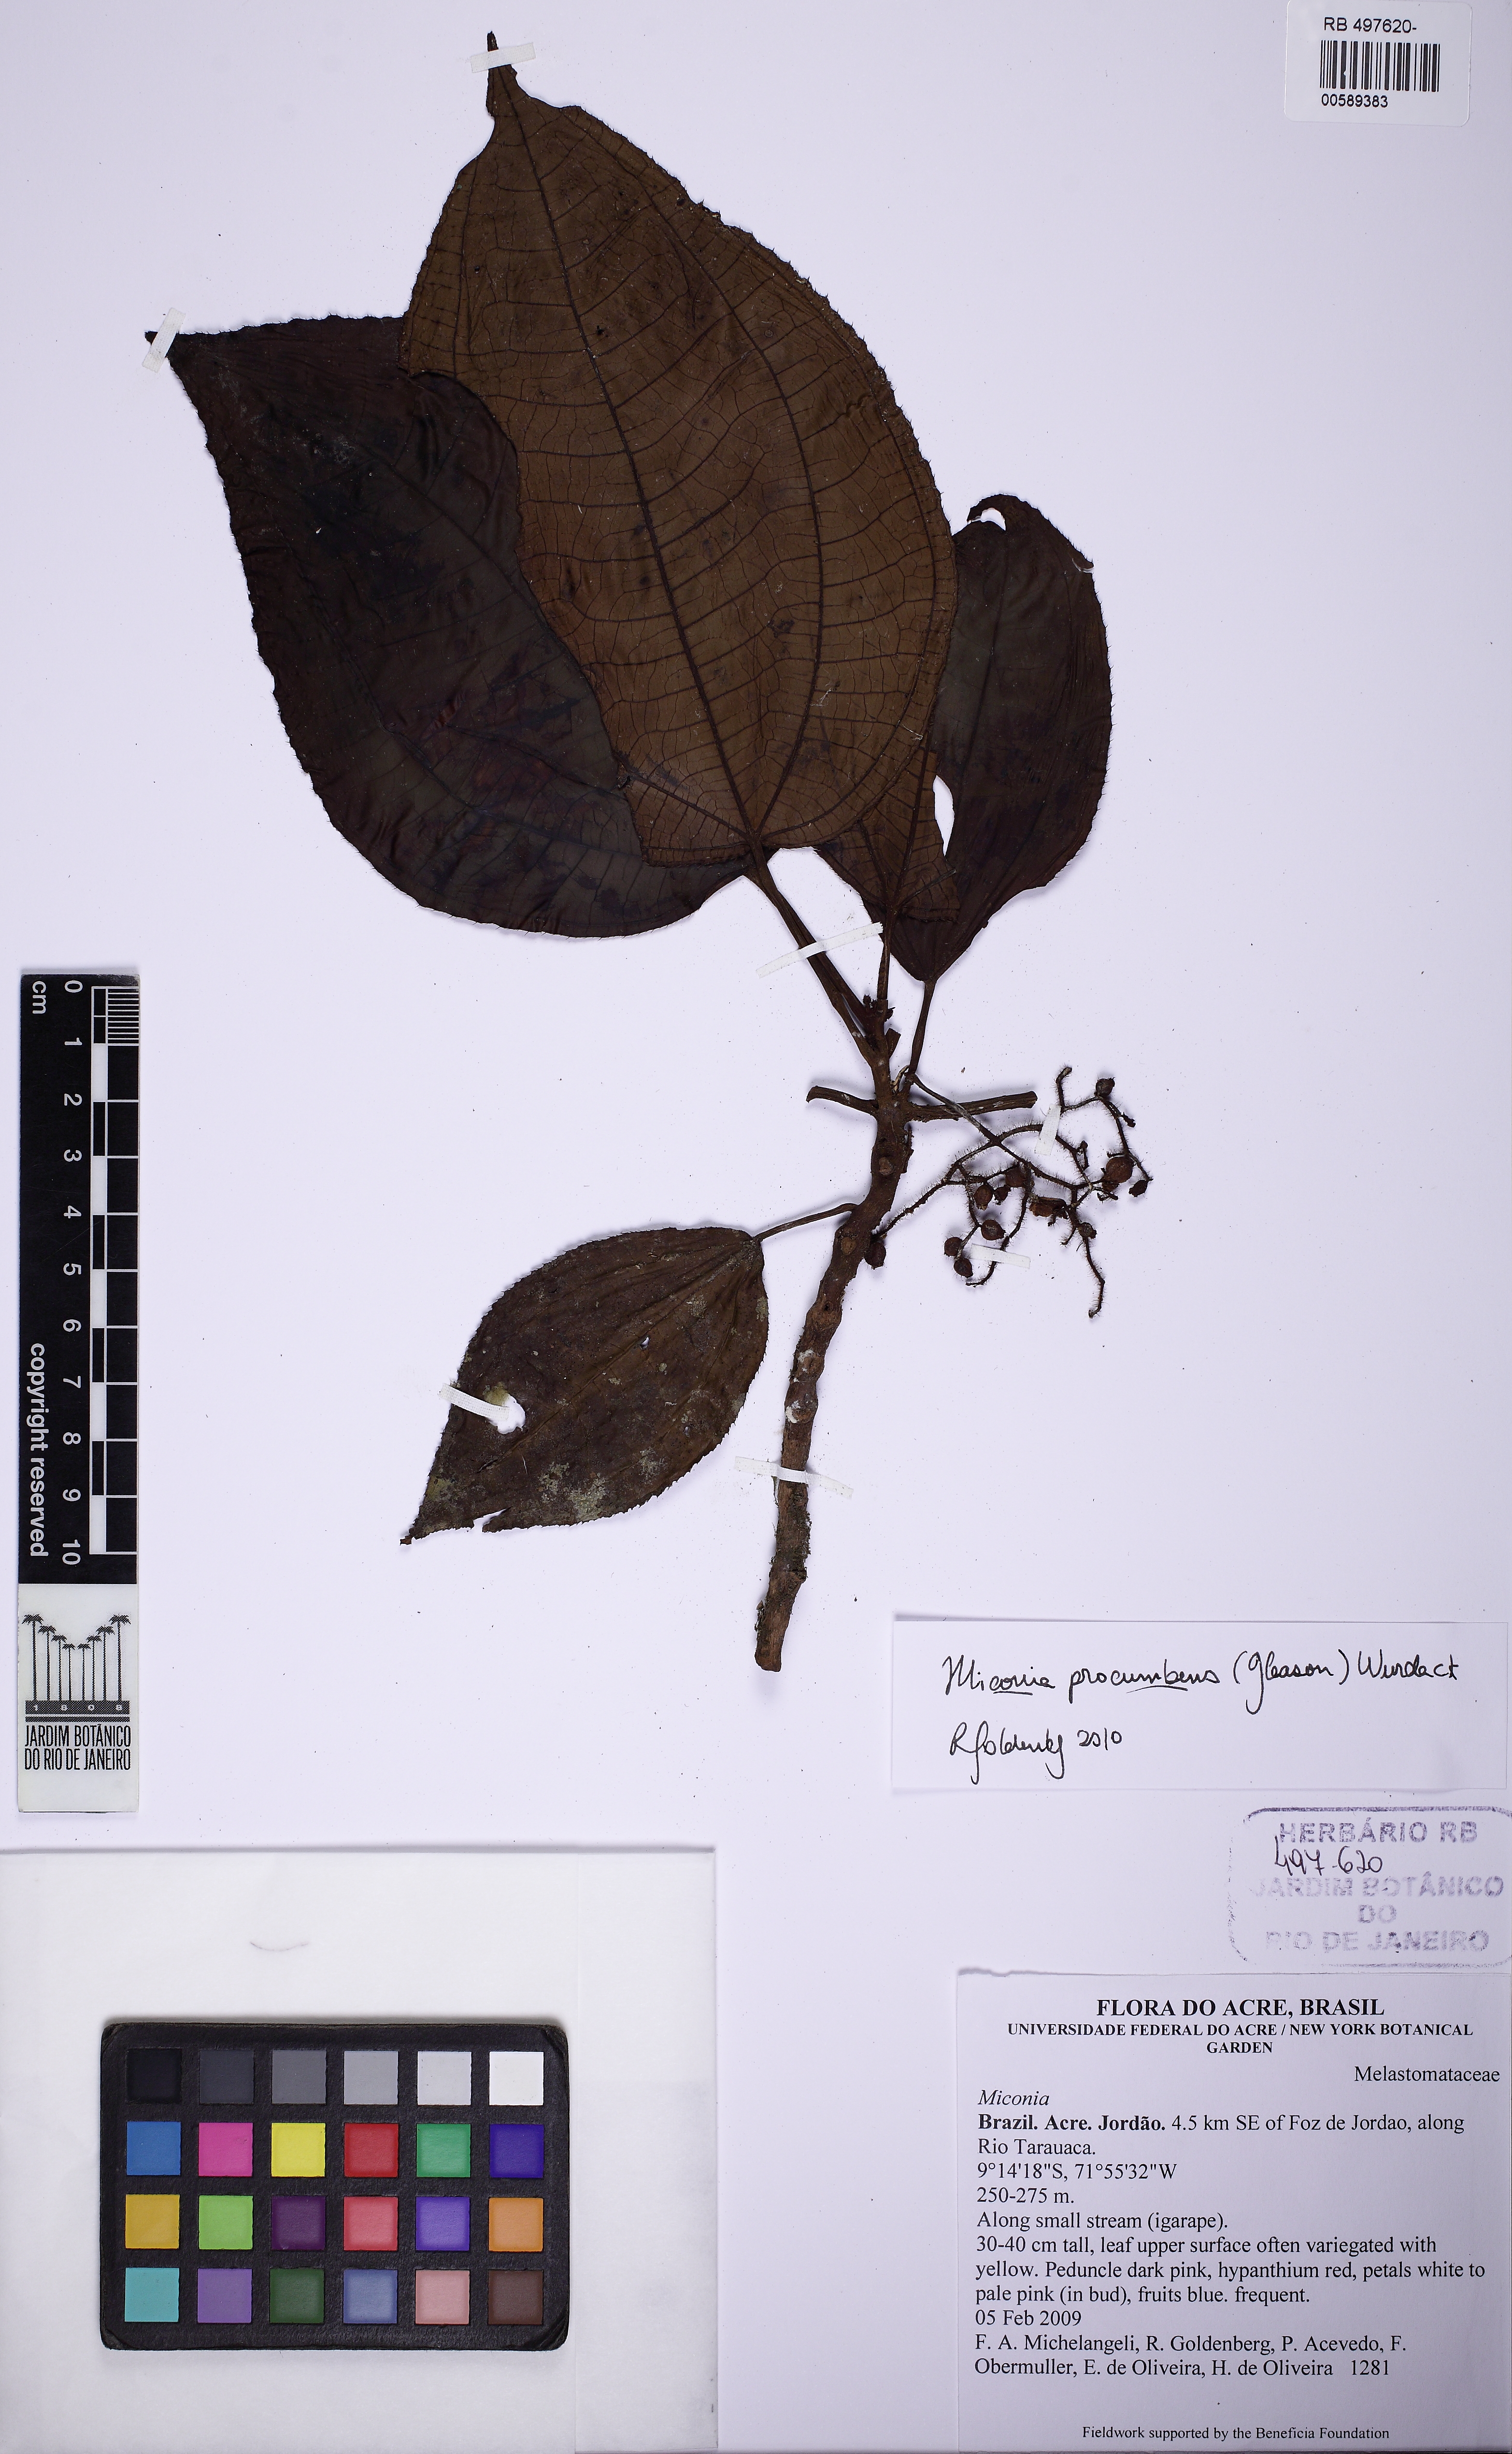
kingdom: Plantae
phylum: Tracheophyta
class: Magnoliopsida
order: Myrtales
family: Melastomataceae
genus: Miconia
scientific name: Miconia procumbens
